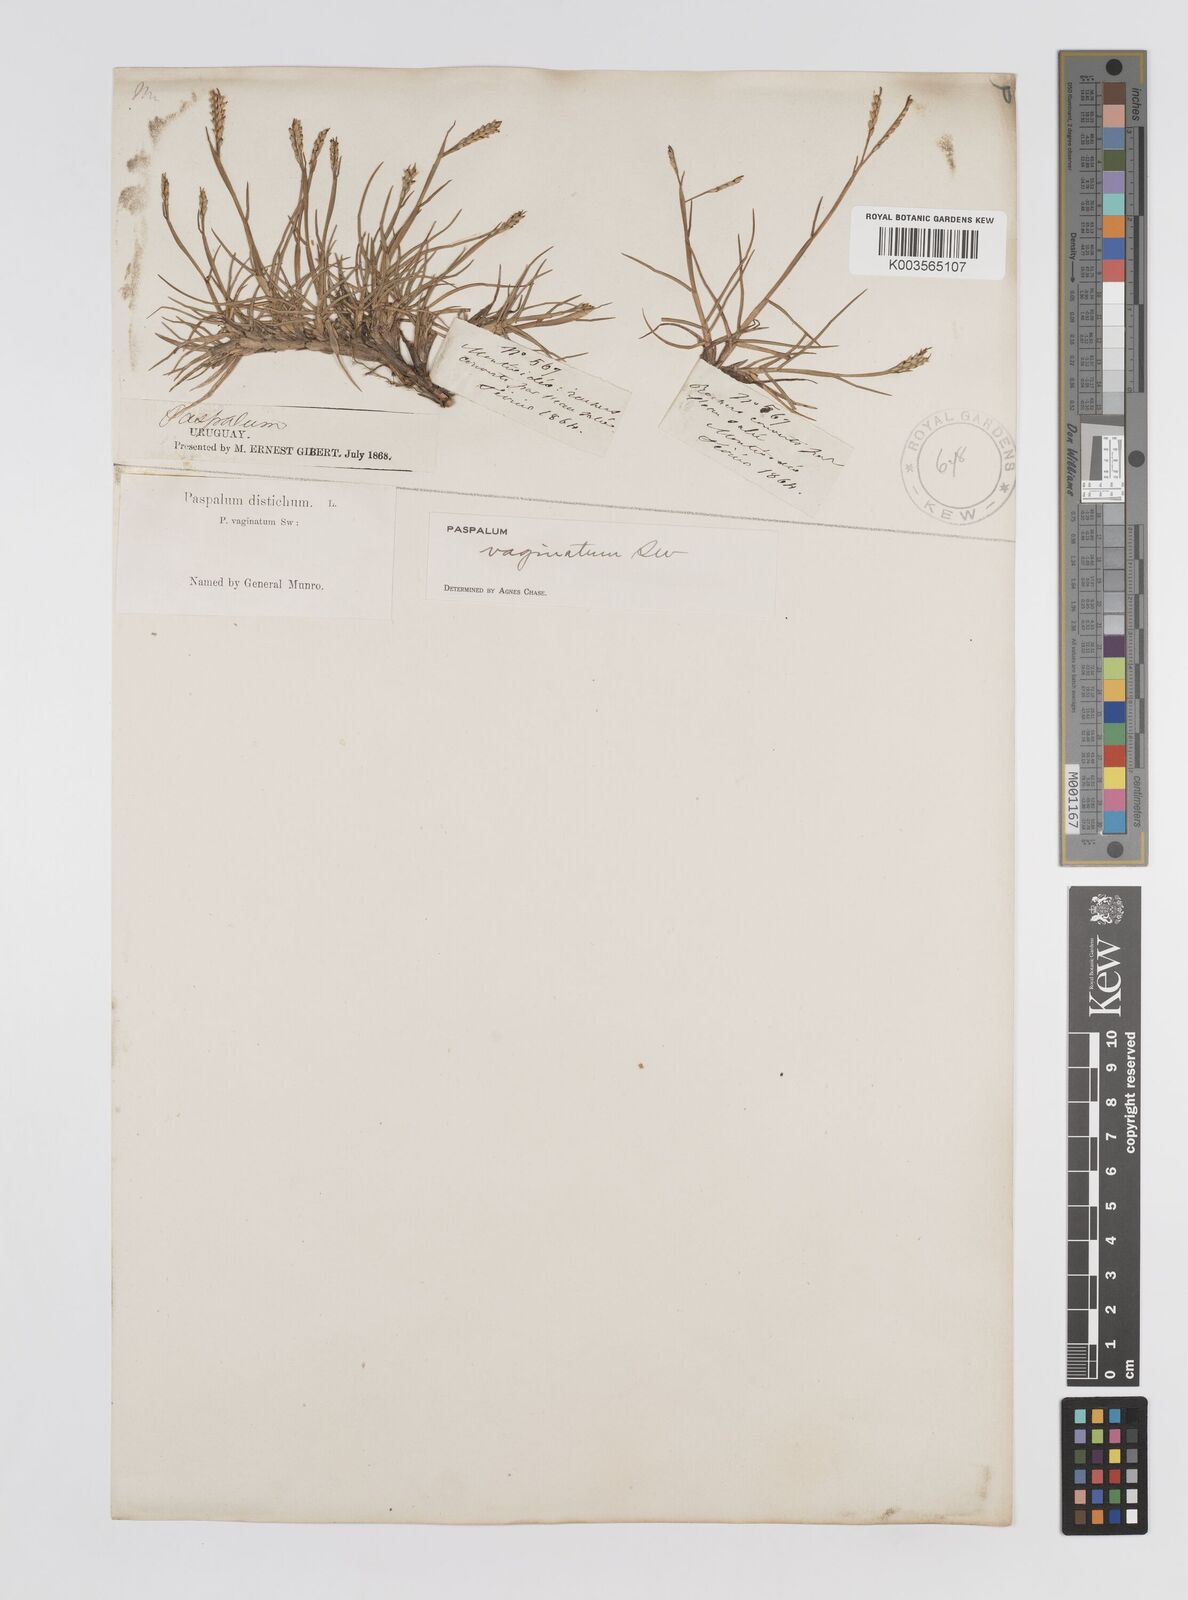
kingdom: Plantae
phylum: Tracheophyta
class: Liliopsida
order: Poales
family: Poaceae
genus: Paspalum
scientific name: Paspalum vaginatum
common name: Seashore paspalum
